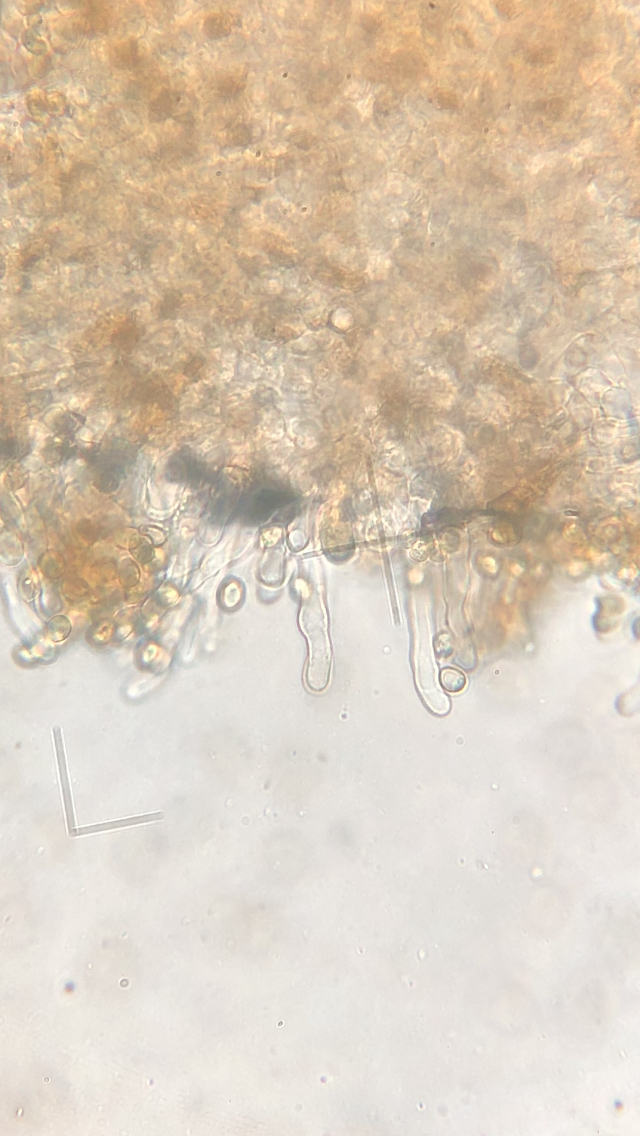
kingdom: Fungi
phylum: Basidiomycota
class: Agaricomycetes
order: Agaricales
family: Tubariaceae
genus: Tubaria
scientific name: Tubaria conspersa
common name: bleg fnughat
